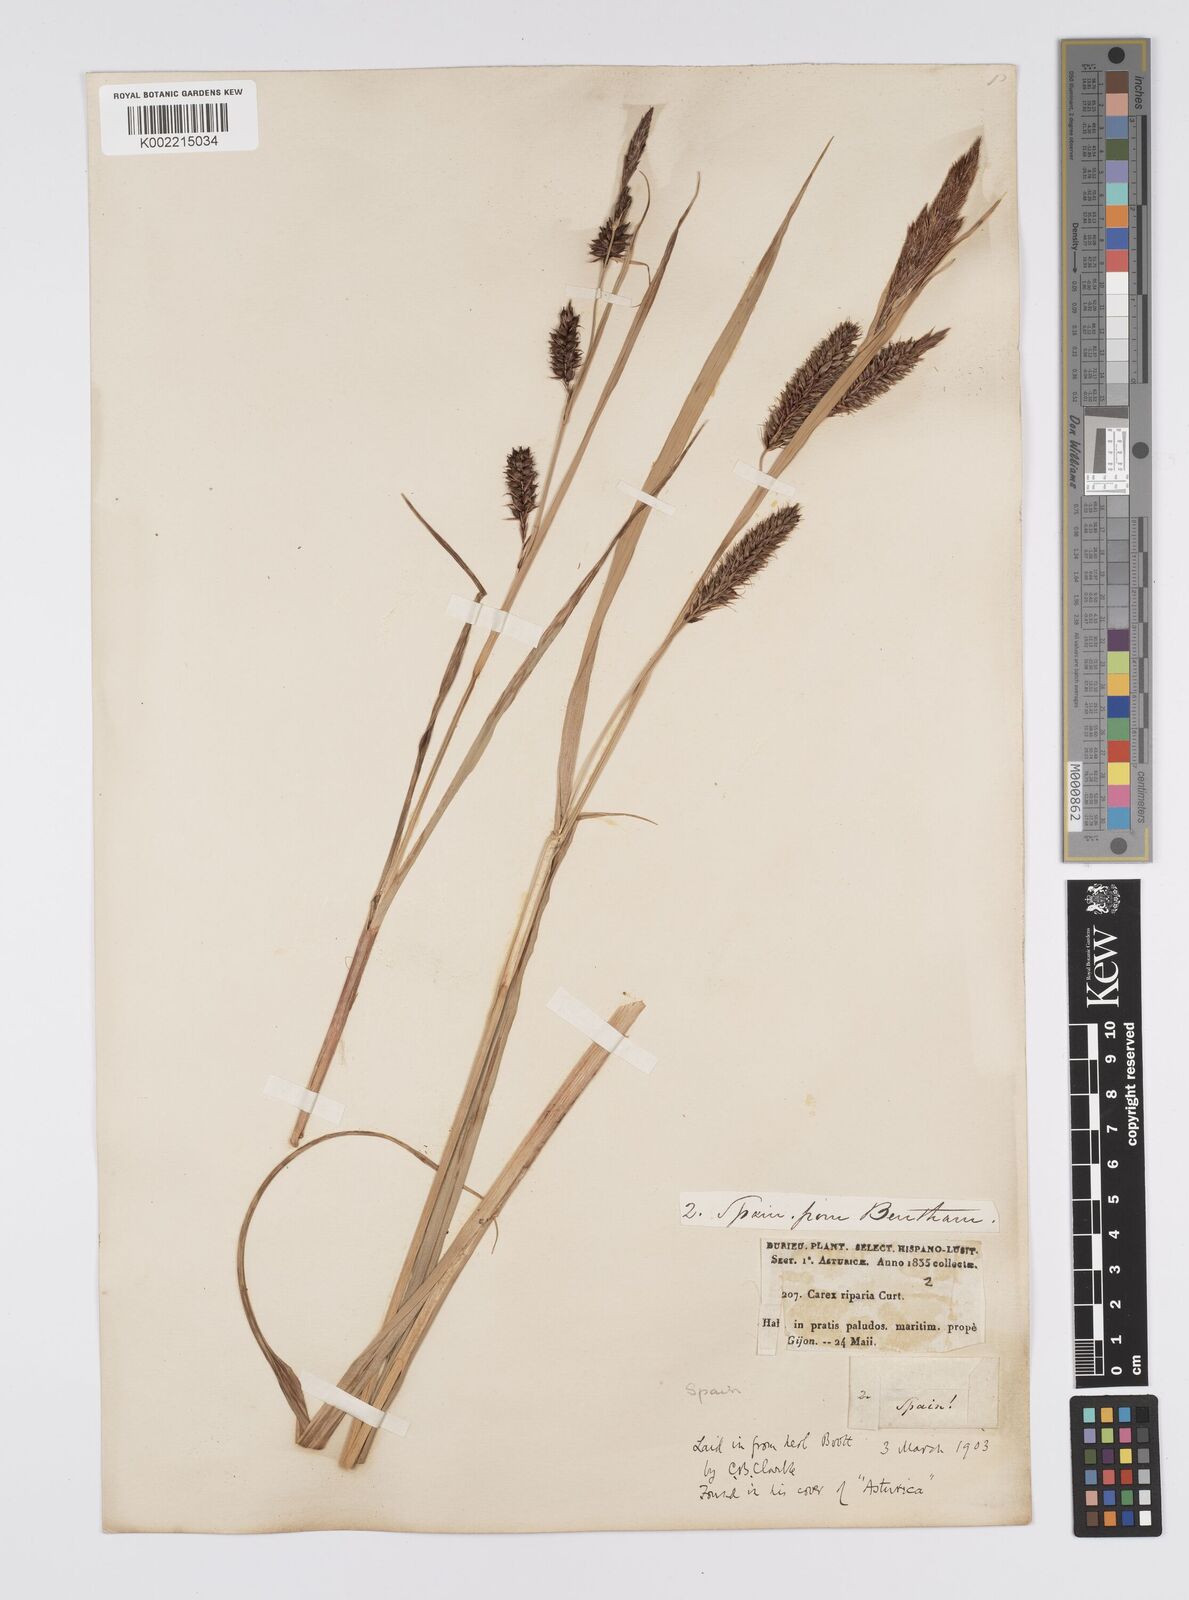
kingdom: Plantae
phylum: Tracheophyta
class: Liliopsida
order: Poales
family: Cyperaceae
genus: Carex
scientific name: Carex riparia
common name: Greater pond-sedge
